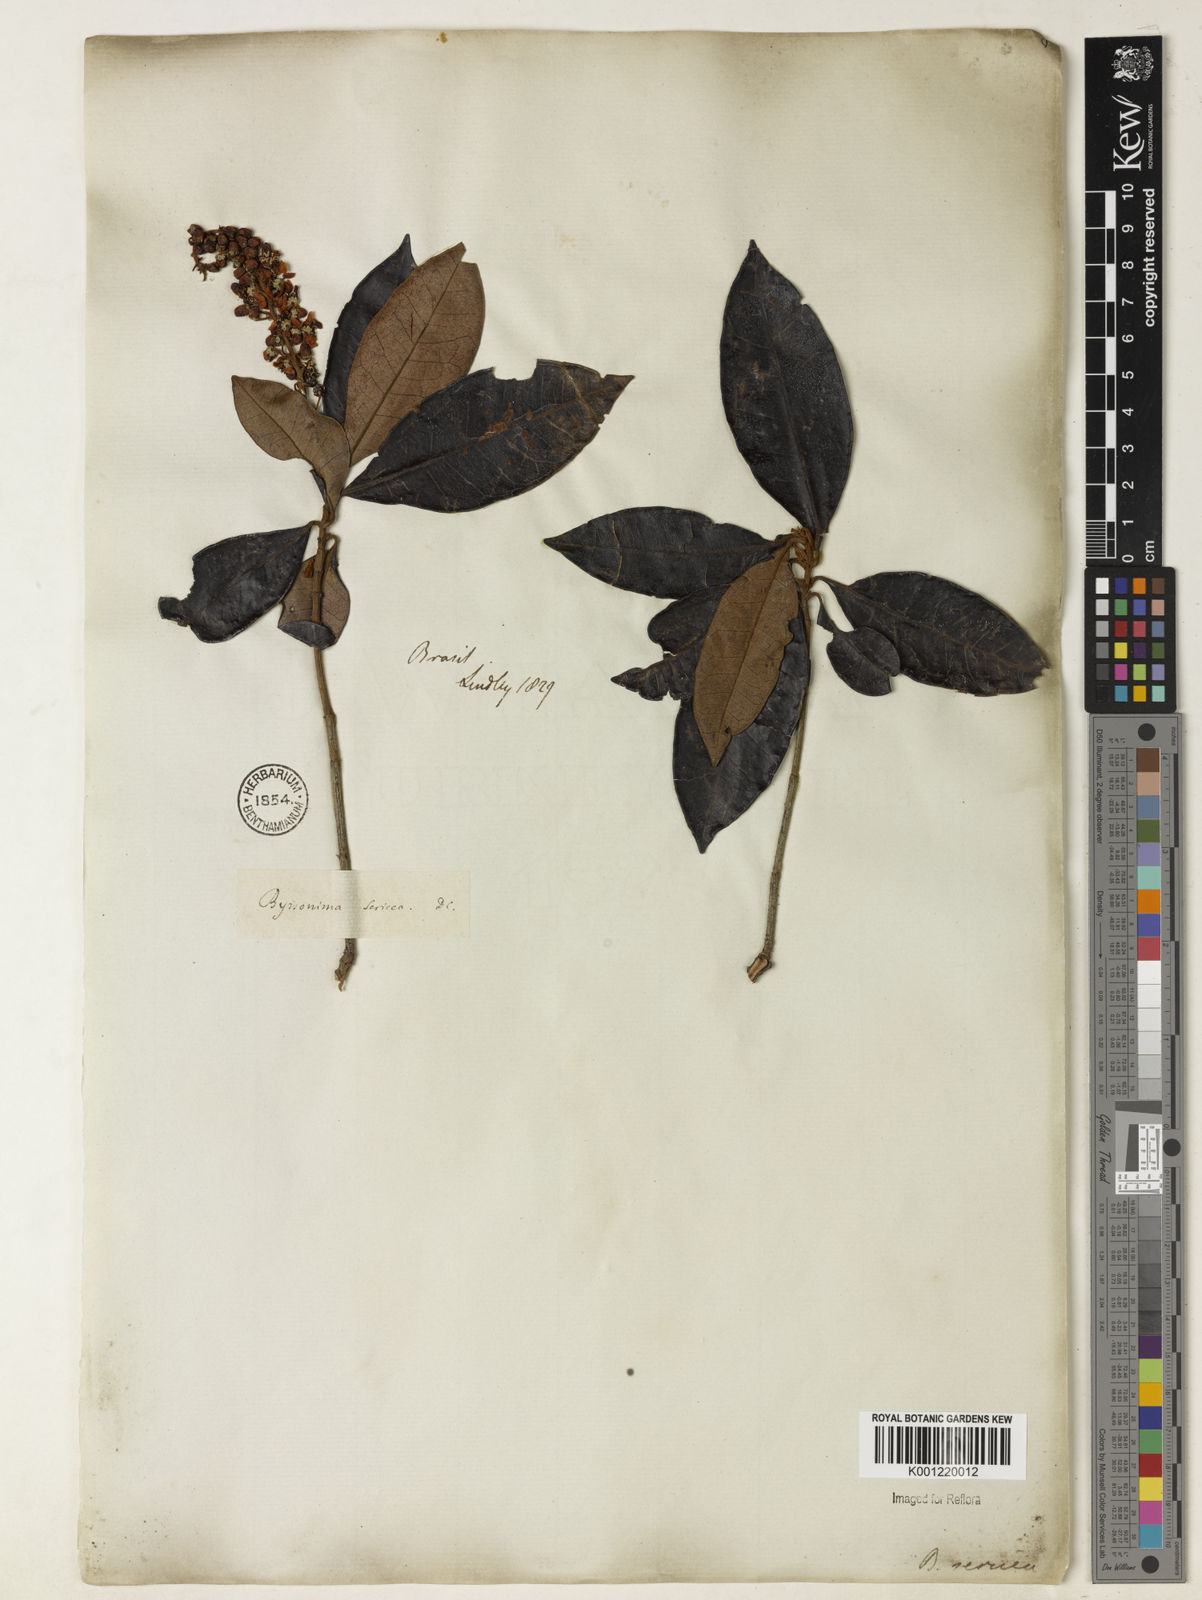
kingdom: Plantae
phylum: Tracheophyta
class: Magnoliopsida
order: Malpighiales
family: Malpighiaceae
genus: Byrsonima
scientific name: Byrsonima sericea
